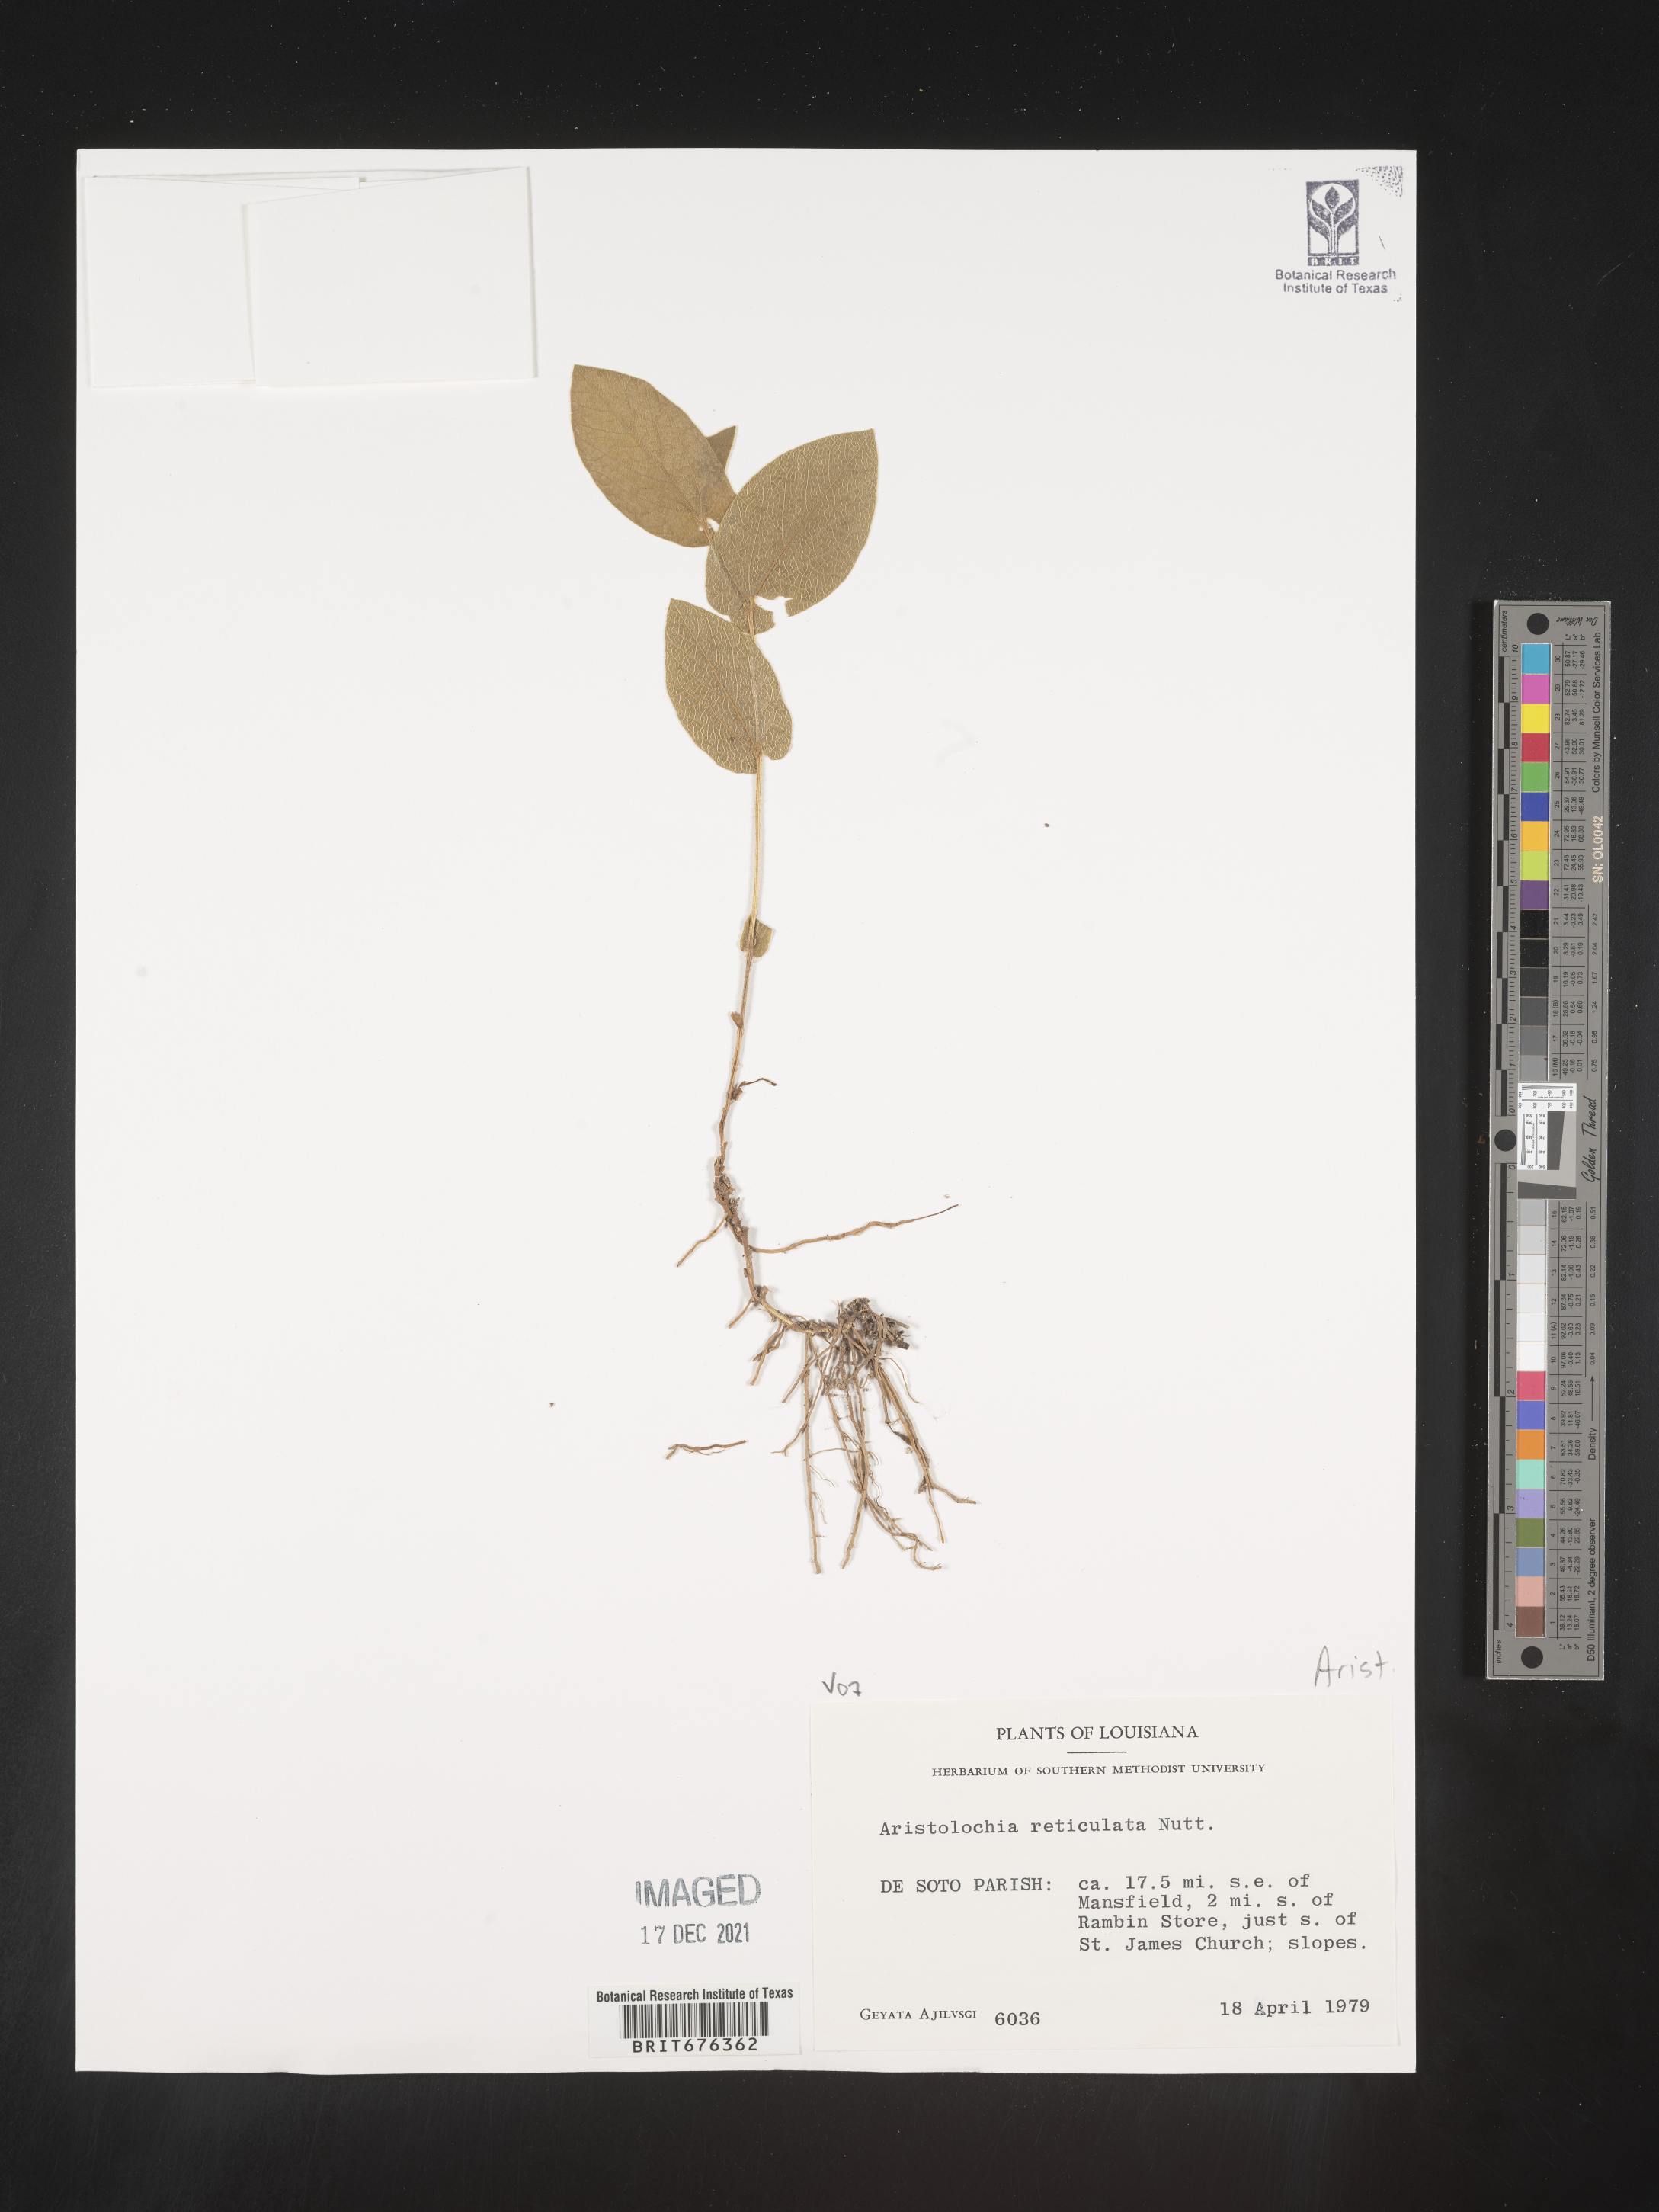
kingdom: Plantae
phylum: Tracheophyta
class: Magnoliopsida
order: Piperales
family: Aristolochiaceae
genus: Aristolochia
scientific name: Aristolochia
